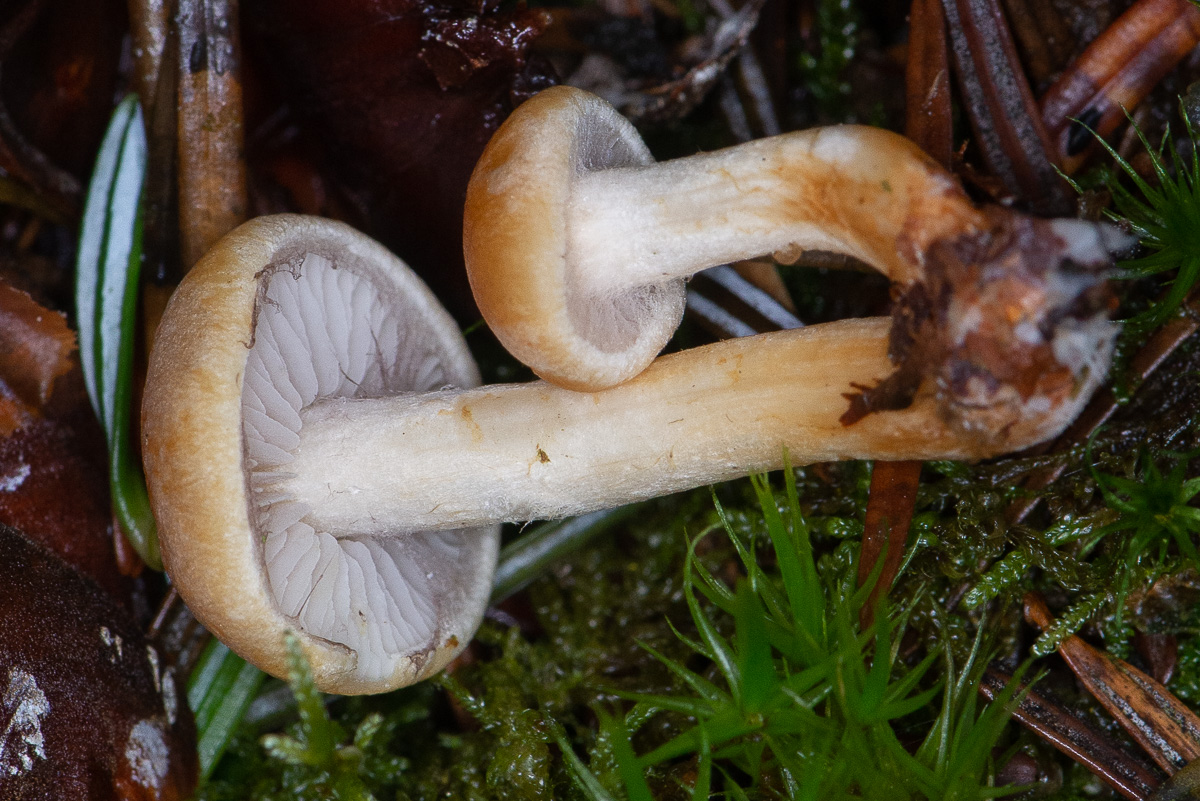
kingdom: Fungi
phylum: Basidiomycota
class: Agaricomycetes
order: Agaricales
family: Strophariaceae
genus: Hypholoma
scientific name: Hypholoma capnoides
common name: gran-svovlhat
